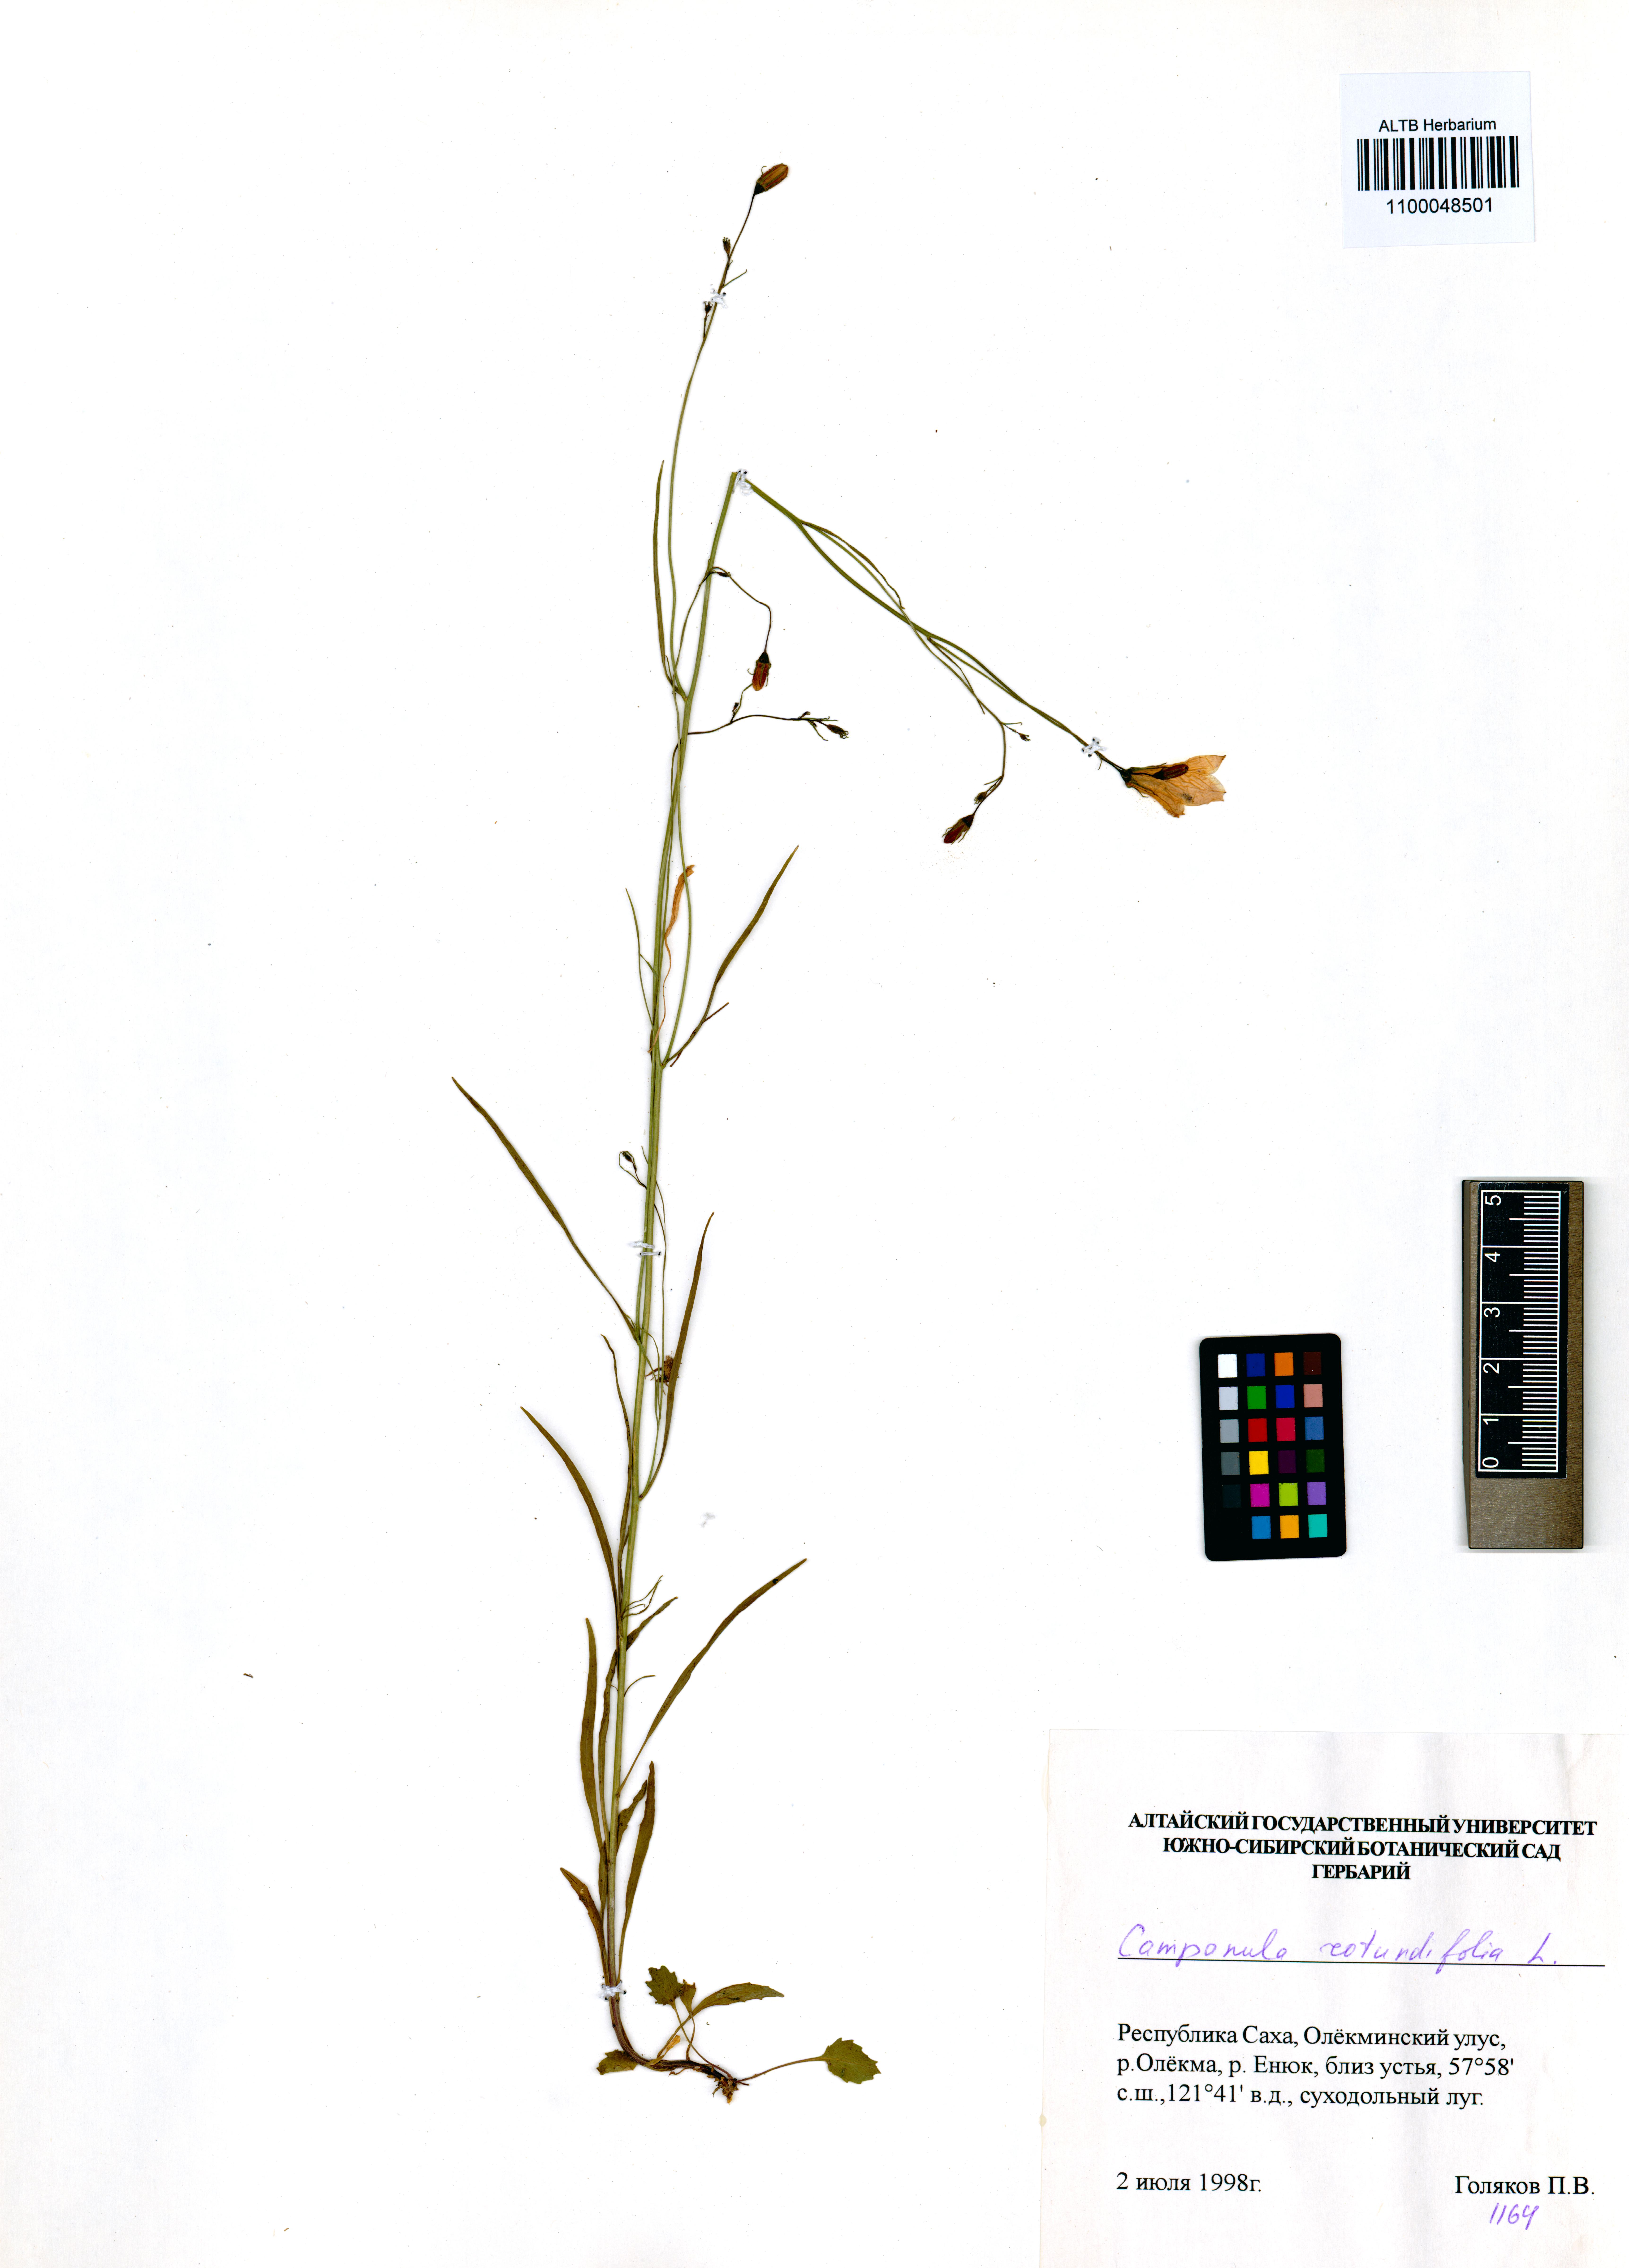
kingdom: Plantae
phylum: Tracheophyta
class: Magnoliopsida
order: Asterales
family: Campanulaceae
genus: Campanula
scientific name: Campanula rotundifolia
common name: Harebell
